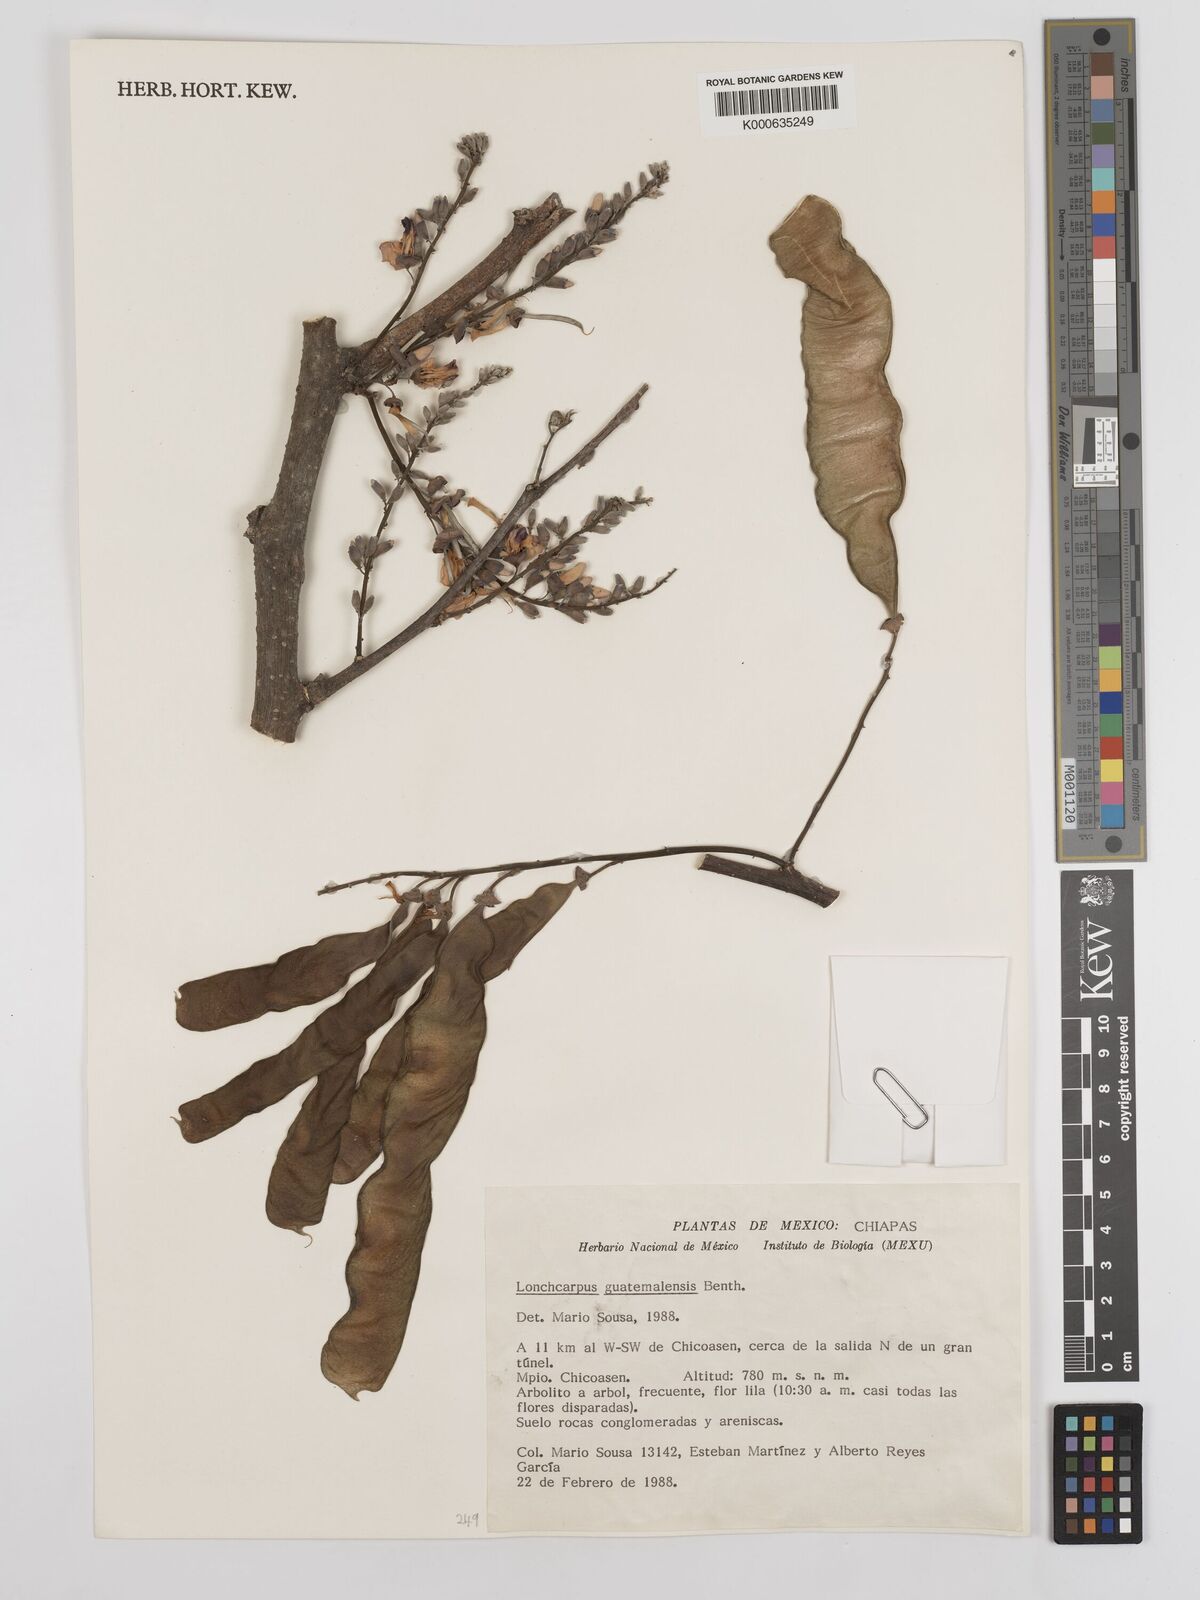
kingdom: Plantae
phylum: Tracheophyta
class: Magnoliopsida
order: Fabales
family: Fabaceae
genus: Lonchocarpus
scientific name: Lonchocarpus guatemalensis
